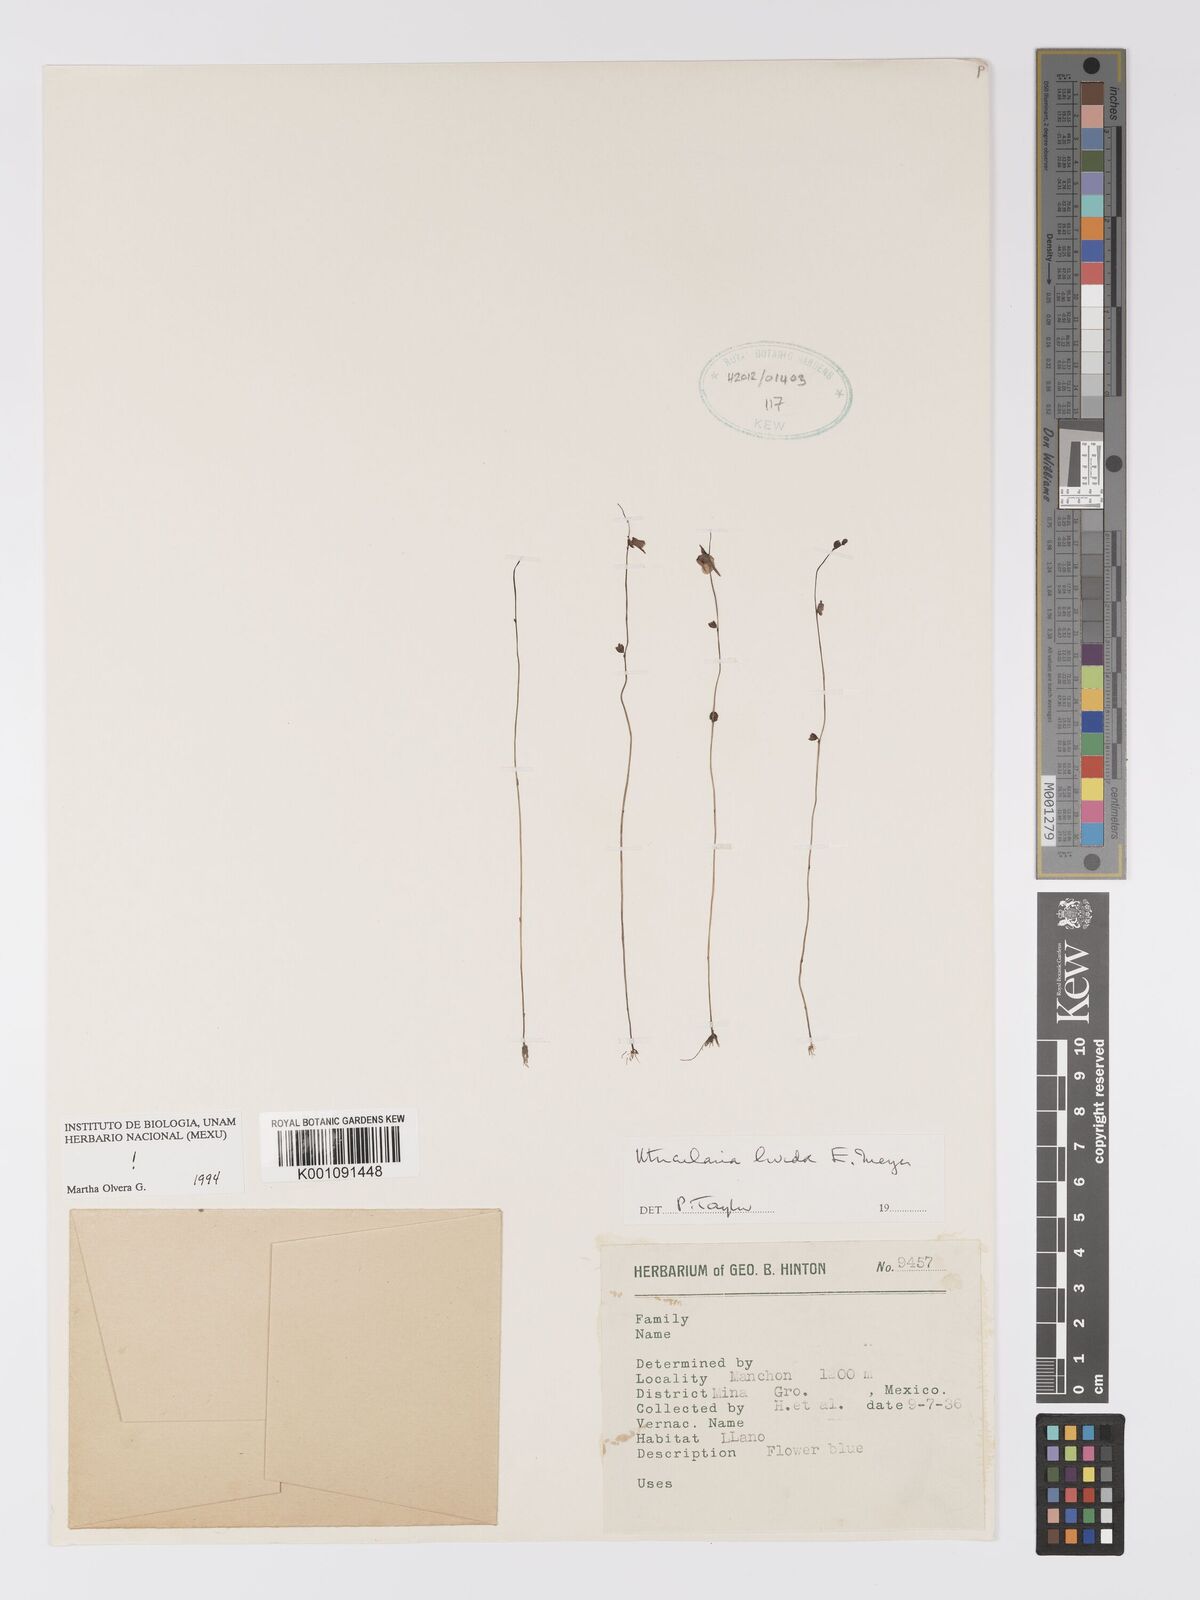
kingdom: Plantae
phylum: Tracheophyta
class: Magnoliopsida
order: Lamiales
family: Lentibulariaceae
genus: Utricularia
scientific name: Utricularia livida
